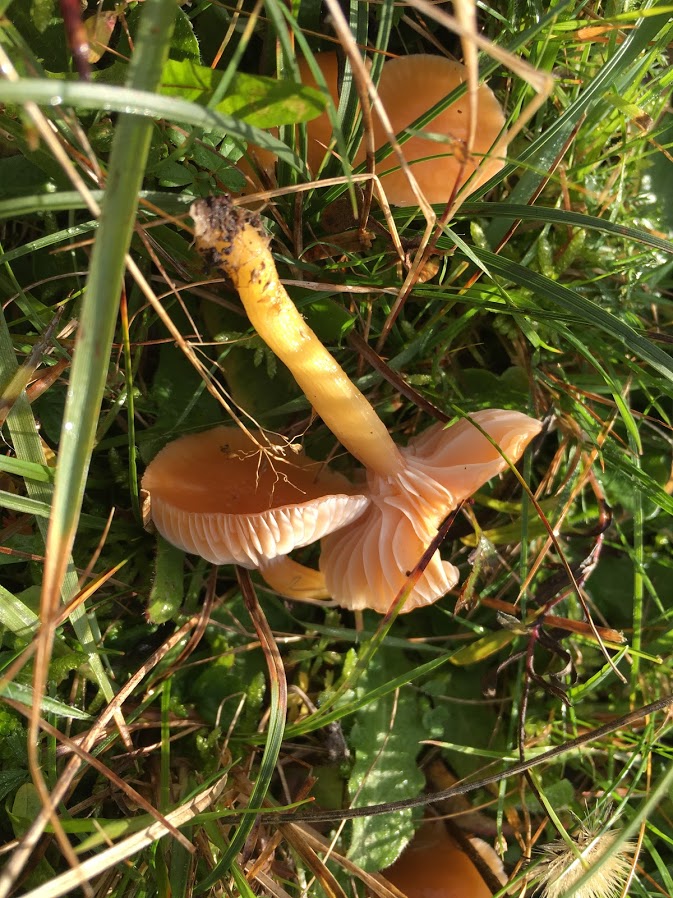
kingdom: Fungi
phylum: Basidiomycota
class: Agaricomycetes
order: Agaricales
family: Hygrophoraceae
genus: Gliophorus
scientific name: Gliophorus laetus
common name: brusk-vokshat
